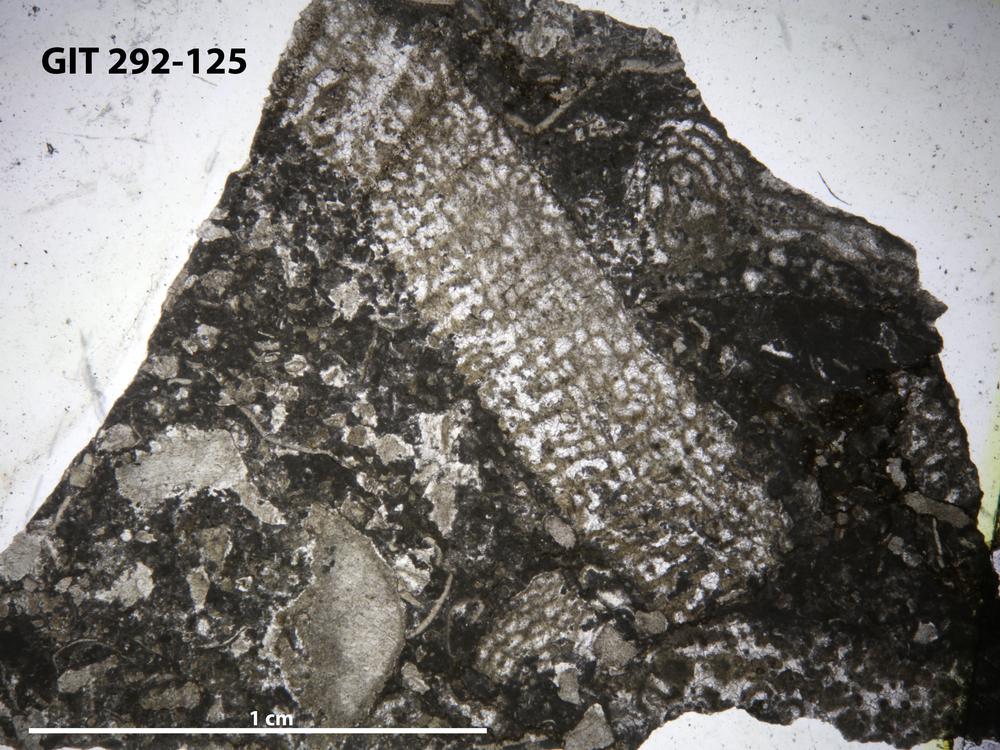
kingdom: Animalia
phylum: Porifera
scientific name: Porifera
